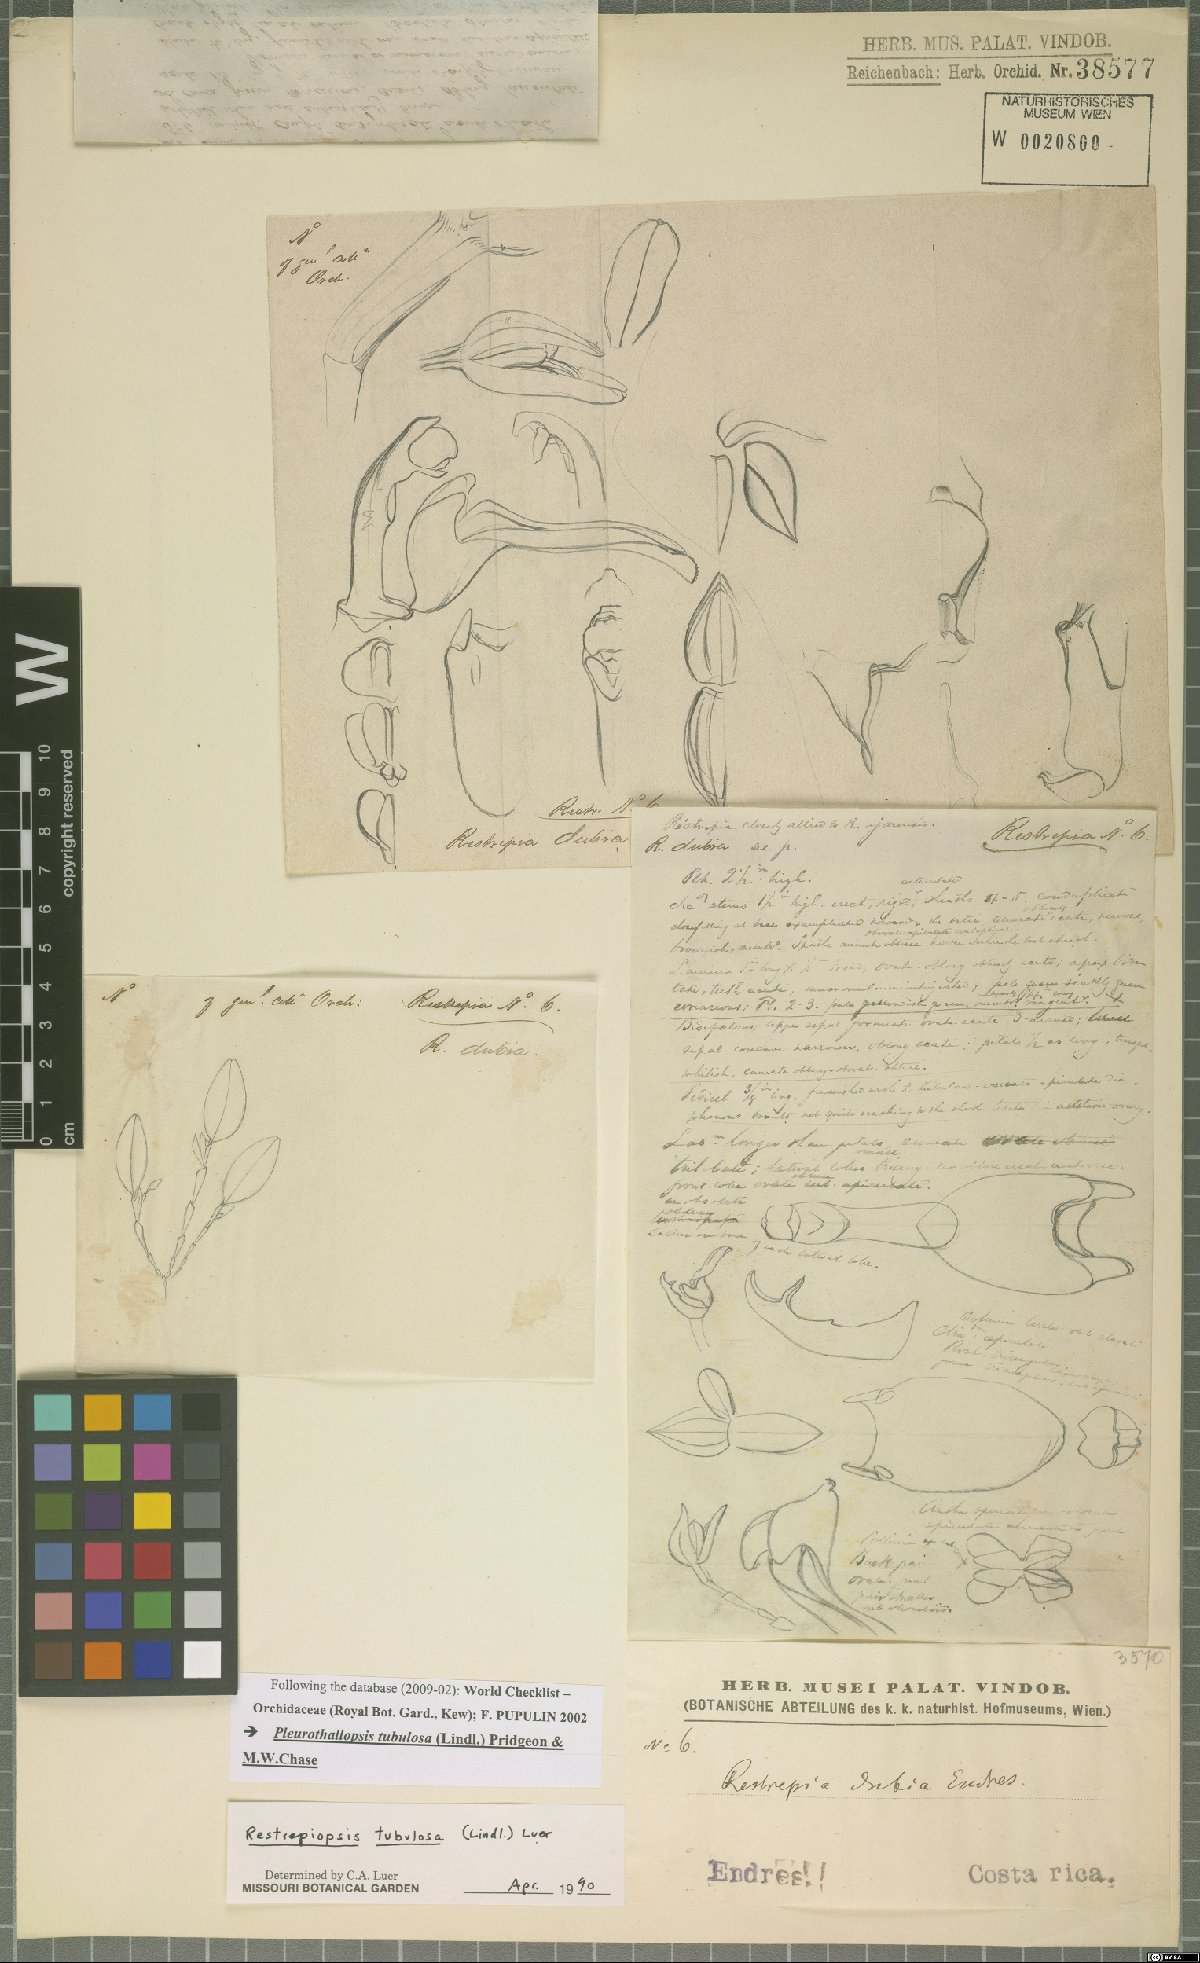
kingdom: Plantae
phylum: Tracheophyta
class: Liliopsida
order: Asparagales
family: Orchidaceae
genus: Pleurothallopsis
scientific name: Pleurothallopsis tubulosa
